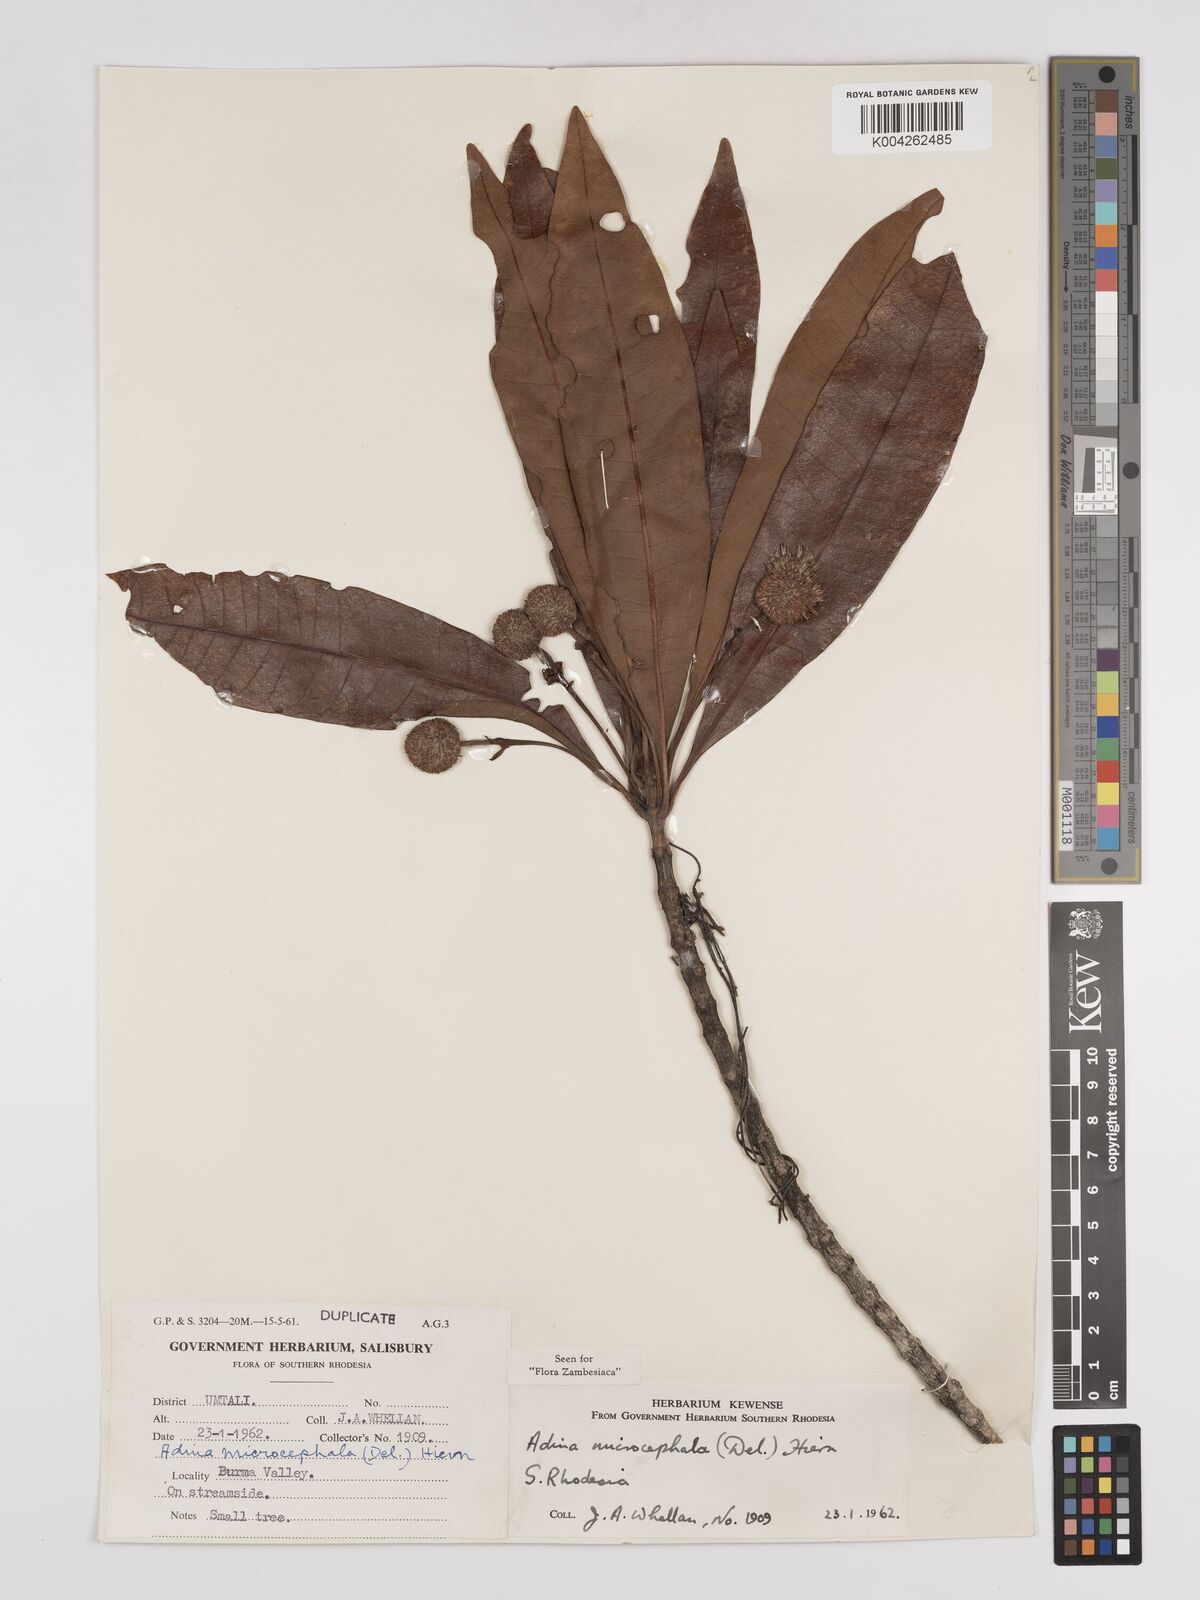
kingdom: Plantae
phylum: Tracheophyta
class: Magnoliopsida
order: Gentianales
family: Rubiaceae
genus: Breonadia
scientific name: Breonadia salicina
